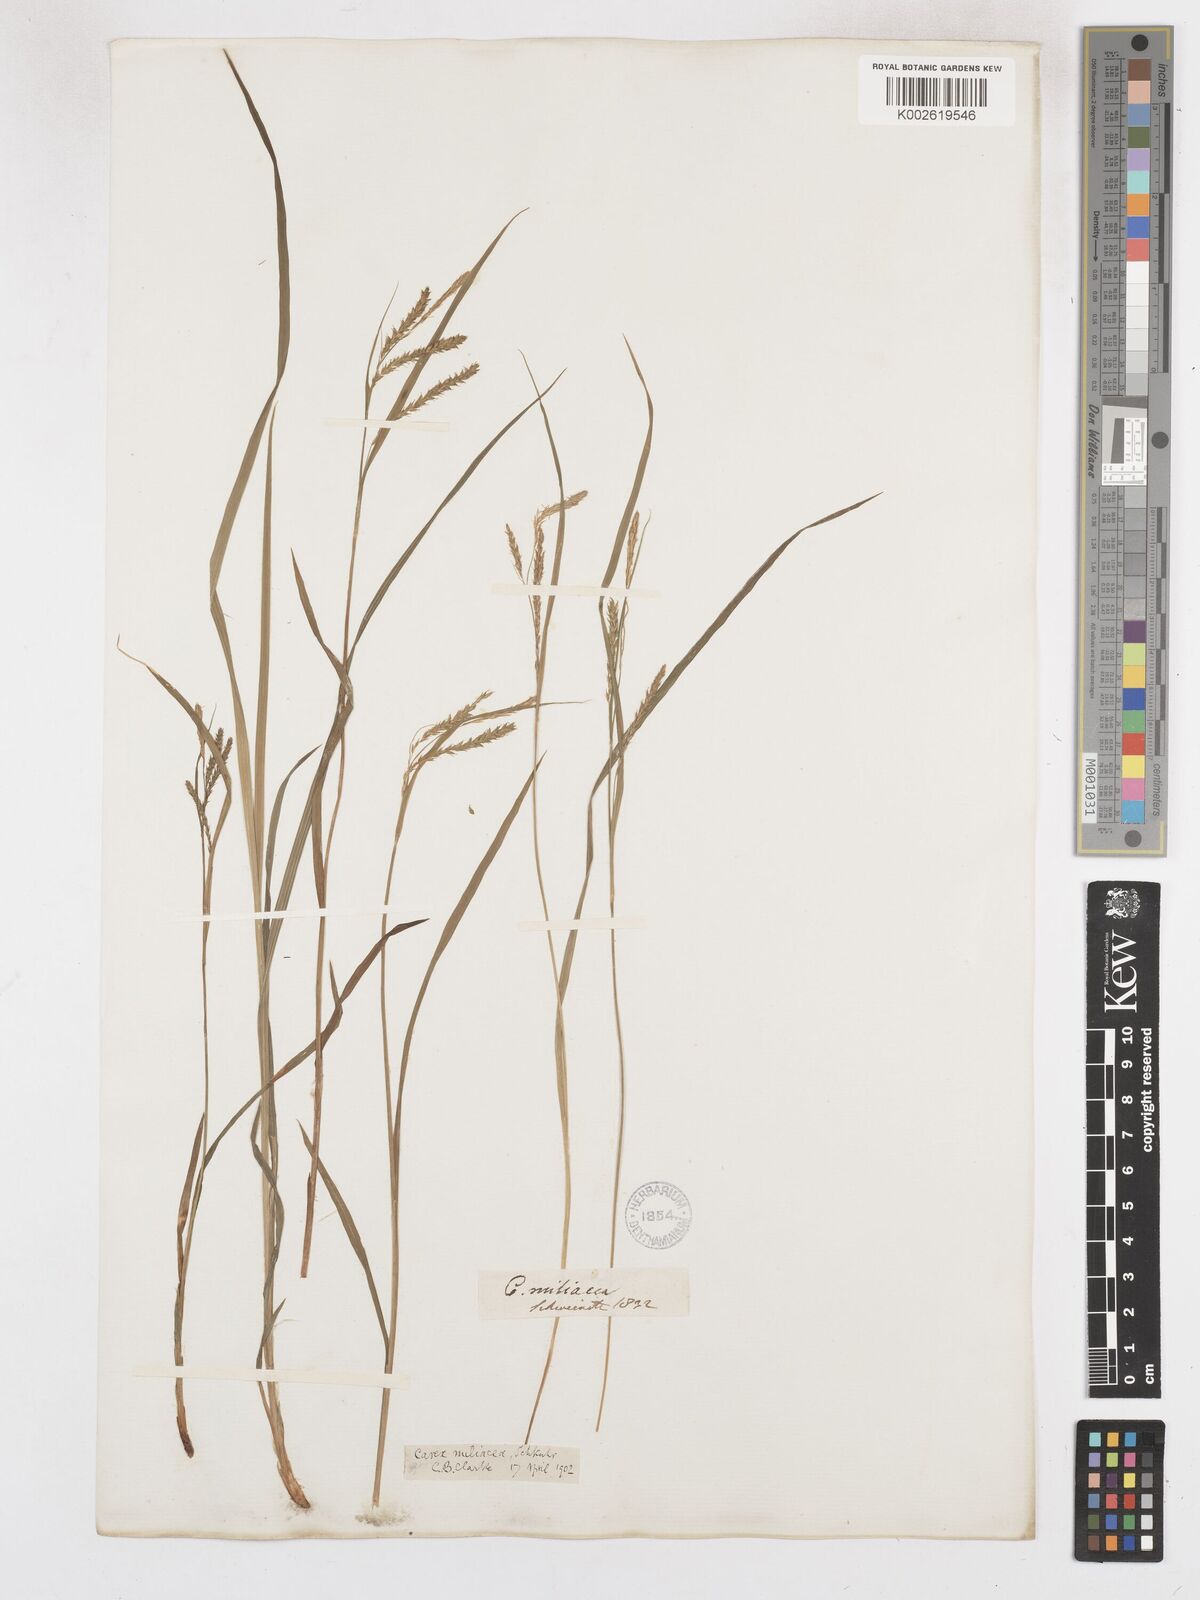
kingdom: Plantae
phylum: Tracheophyta
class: Liliopsida
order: Poales
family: Cyperaceae
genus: Carex
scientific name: Carex prasina
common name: Drooping sedge
